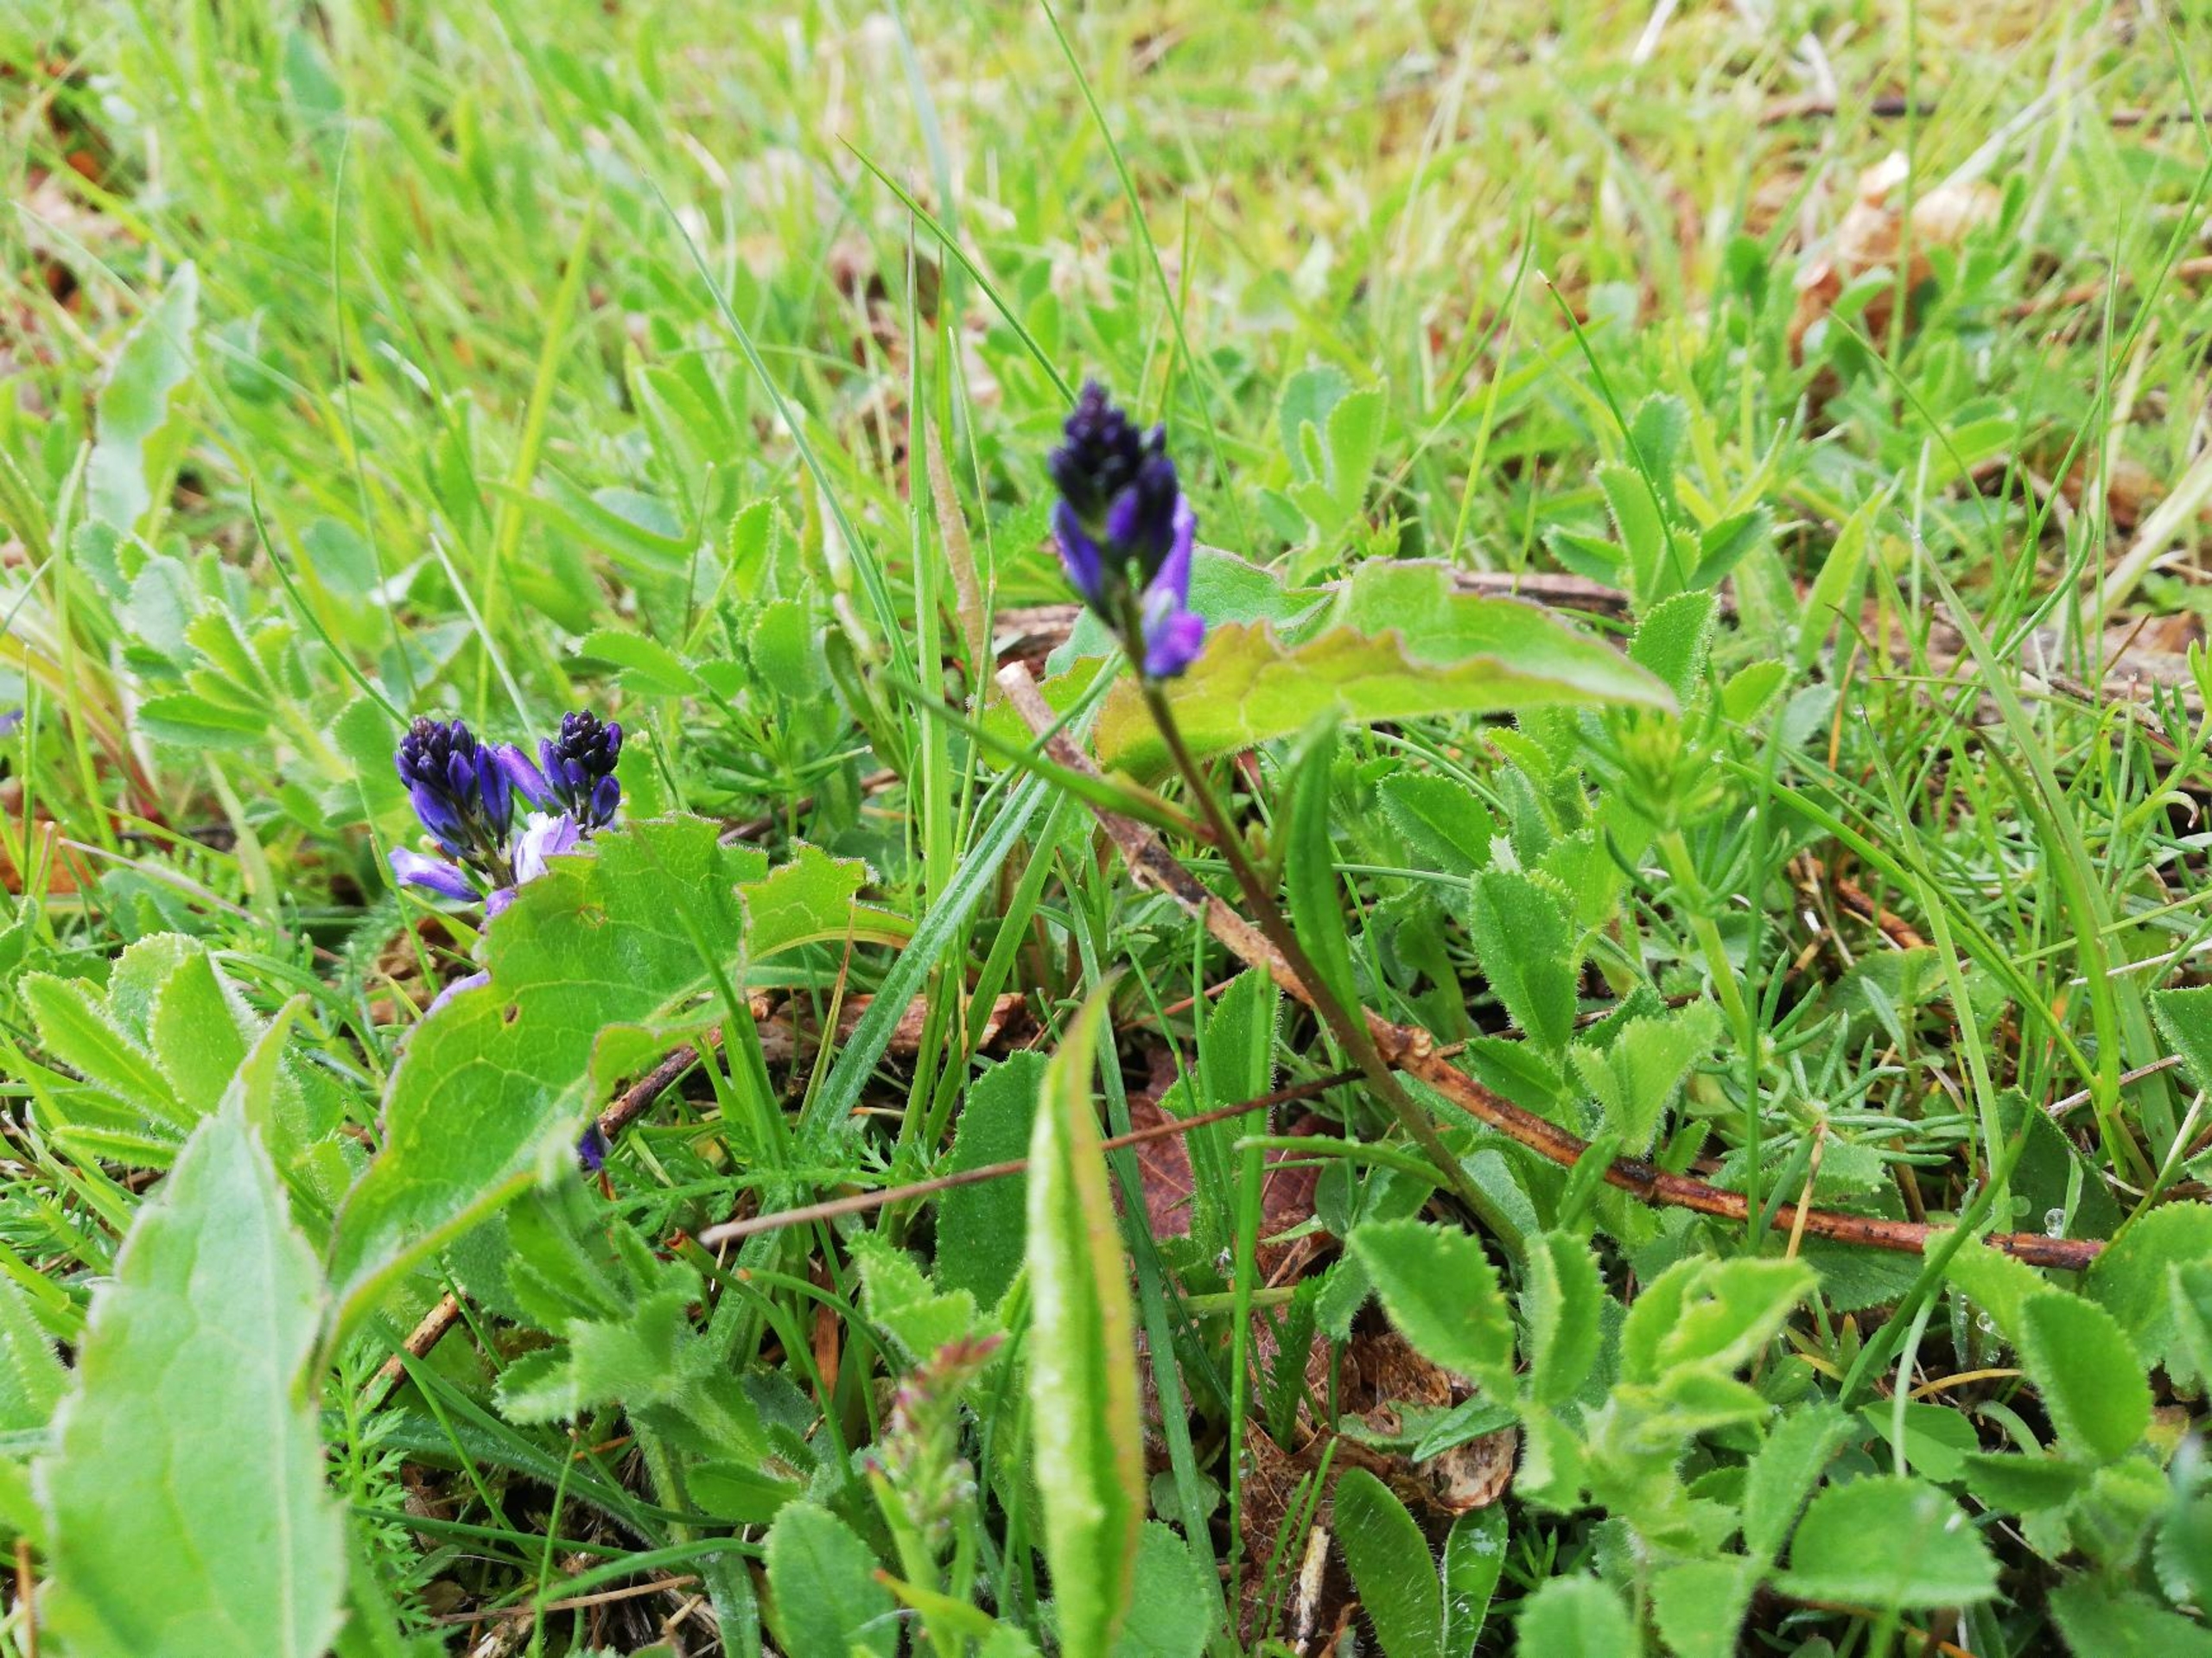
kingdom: Plantae
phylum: Tracheophyta
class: Magnoliopsida
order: Fabales
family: Polygalaceae
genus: Polygala
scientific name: Polygala vulgaris
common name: Almindelig mælkeurt
